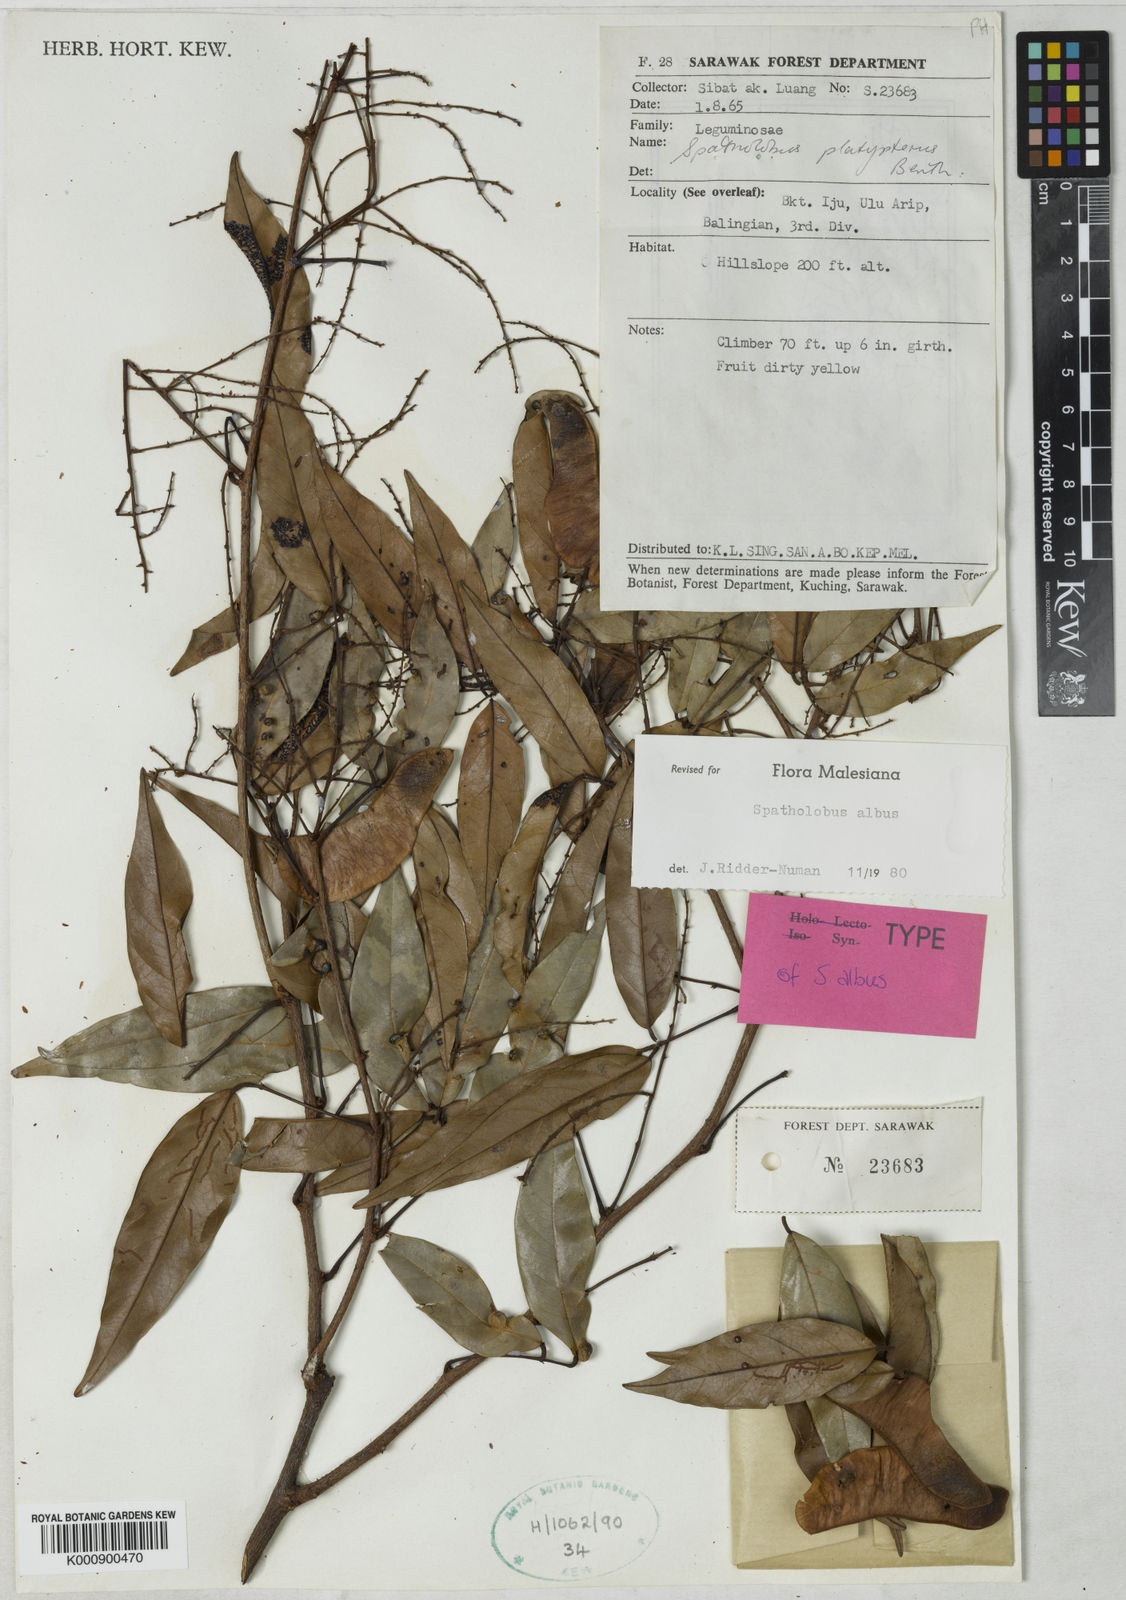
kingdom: Plantae
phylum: Tracheophyta
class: Magnoliopsida
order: Fabales
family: Fabaceae
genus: Spatholobus
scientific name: Spatholobus albus
